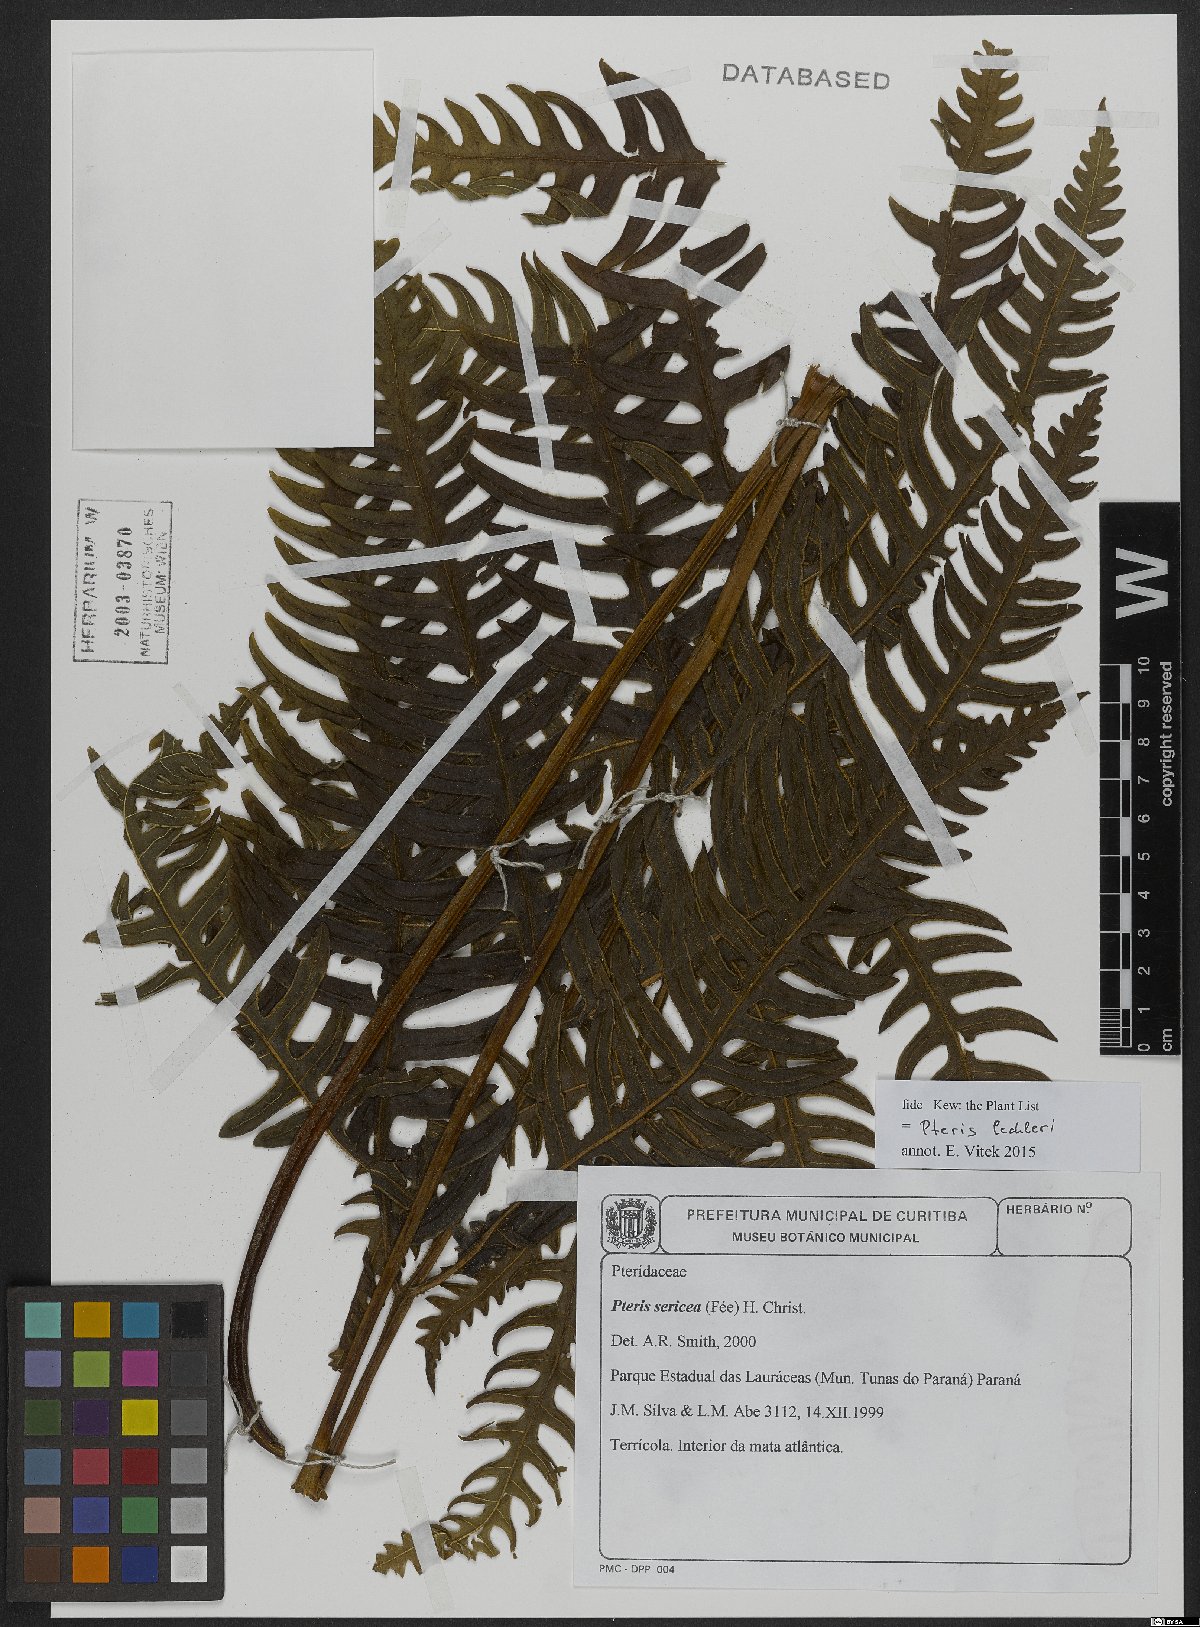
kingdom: Plantae
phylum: Tracheophyta
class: Polypodiopsida
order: Polypodiales
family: Pteridaceae
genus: Pteris
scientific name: Pteris lechleri
